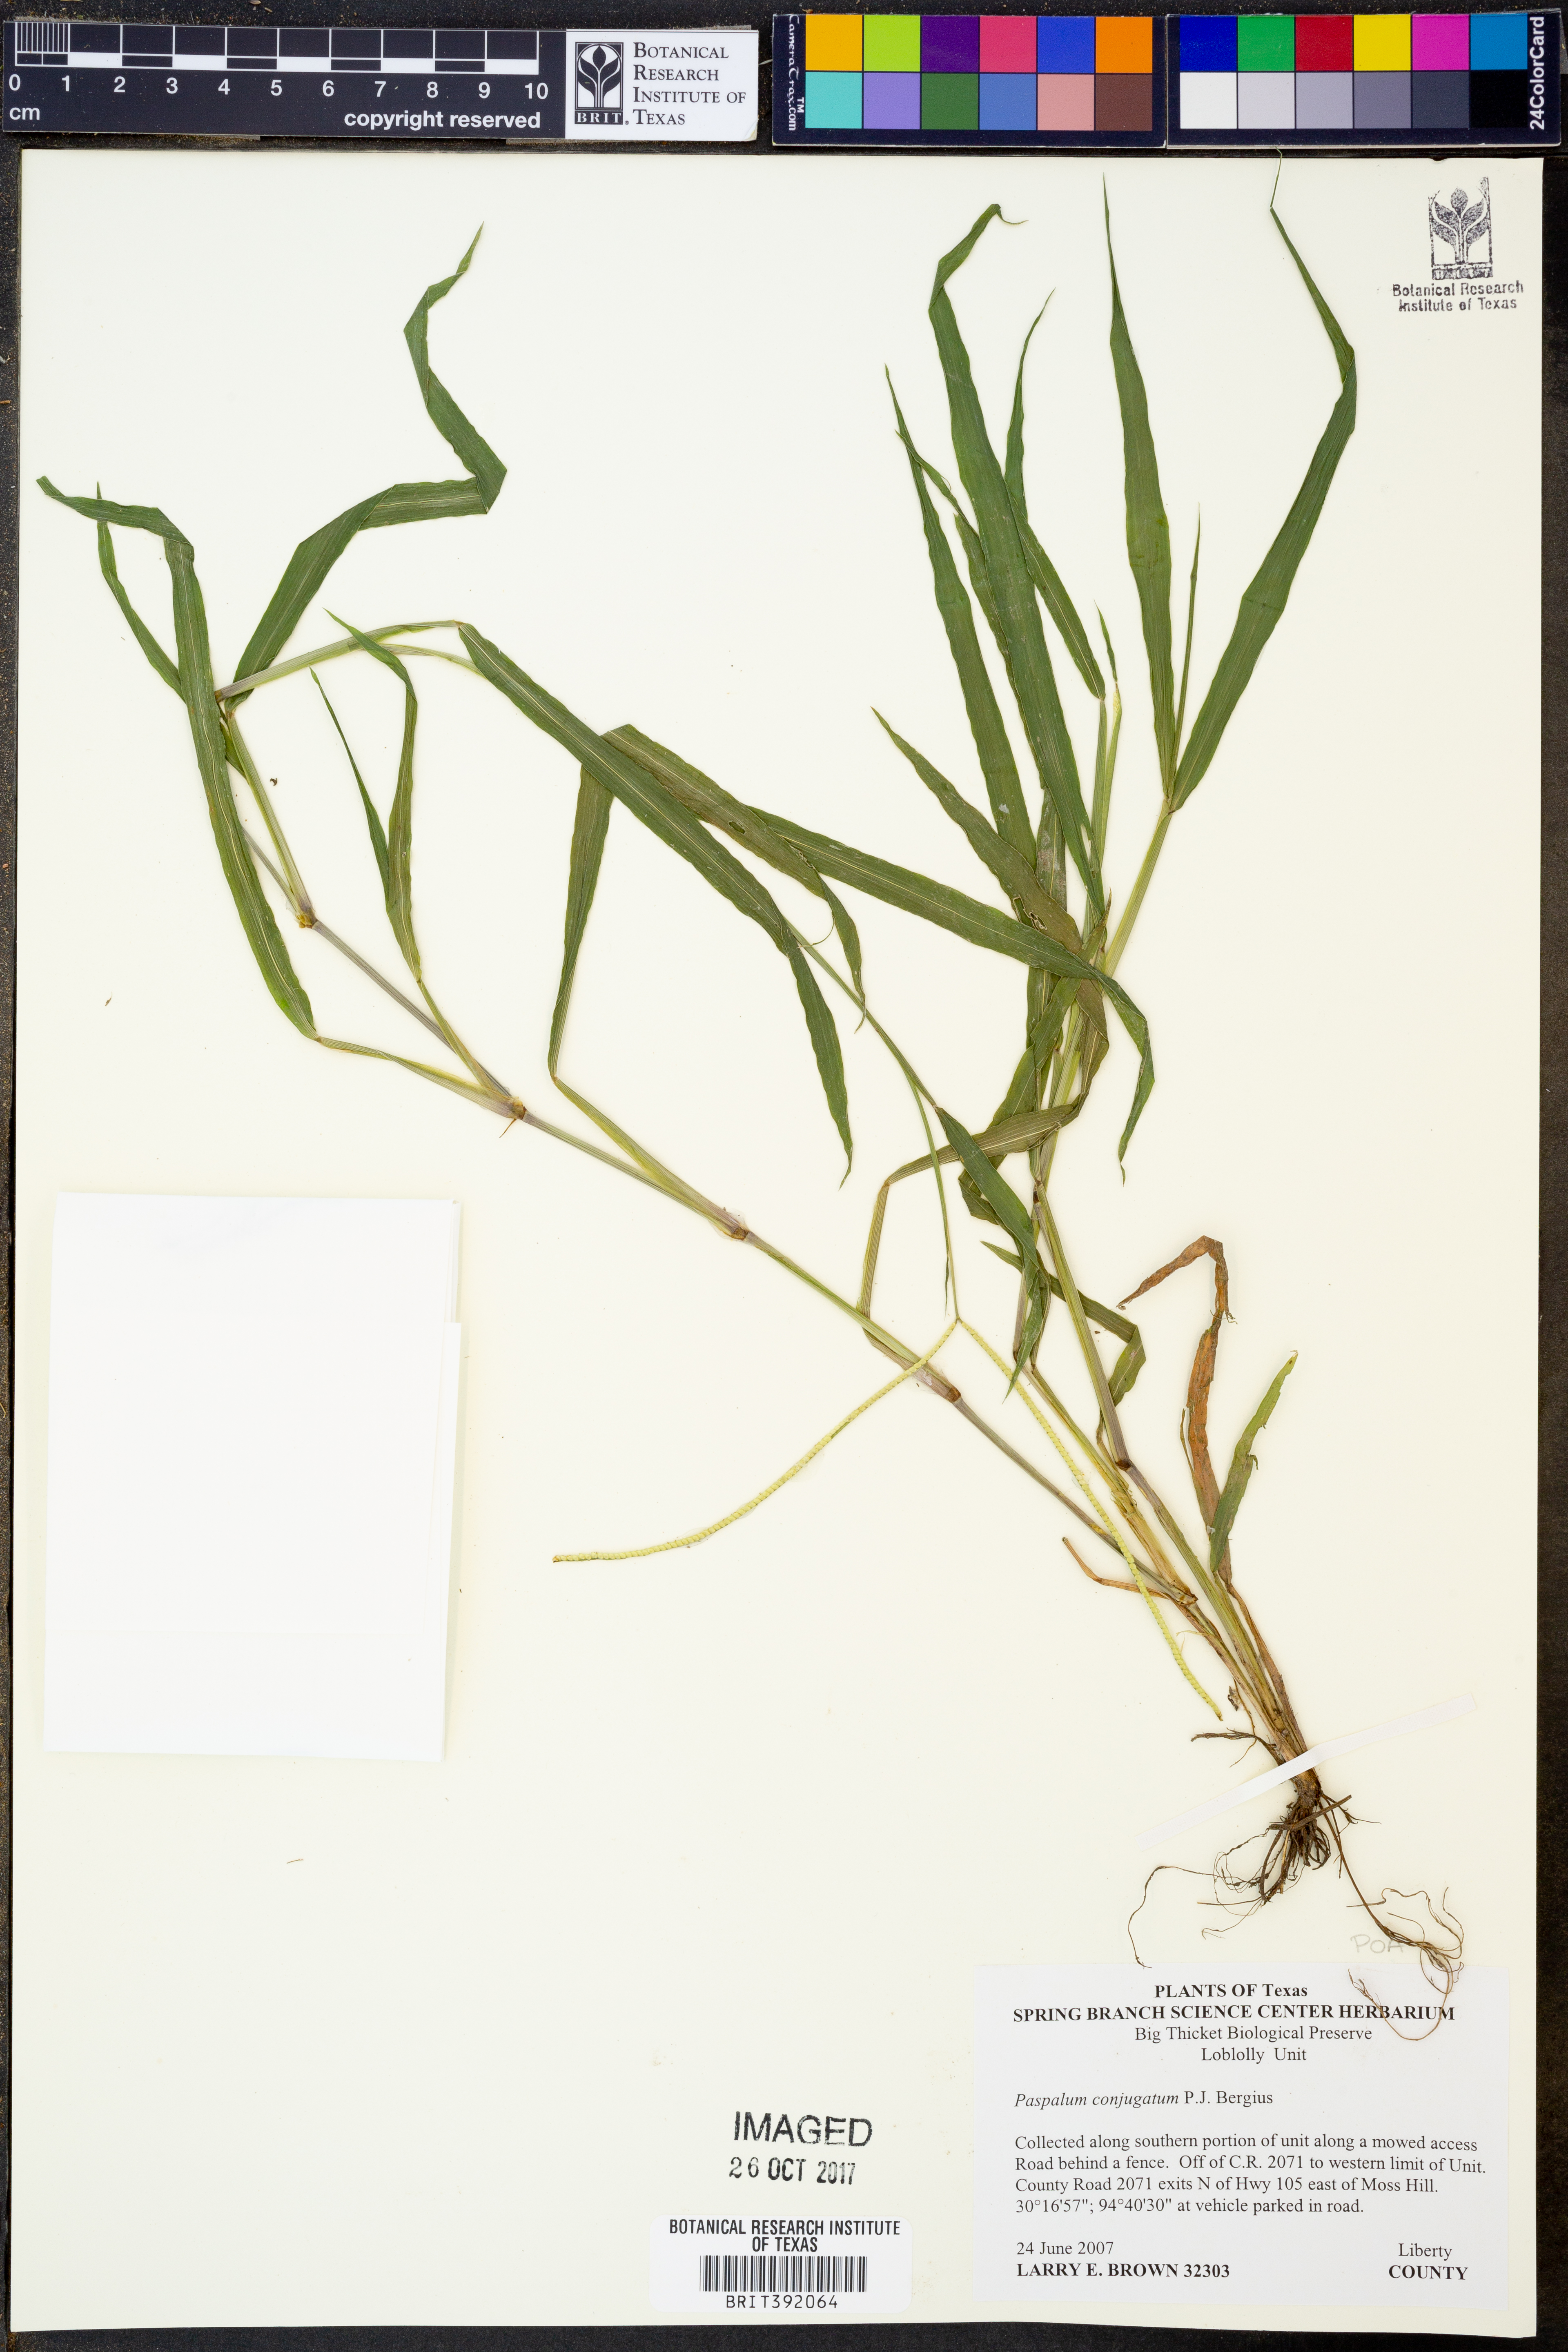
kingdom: Plantae
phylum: Tracheophyta
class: Liliopsida
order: Poales
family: Poaceae
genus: Paspalum
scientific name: Paspalum conjugatum
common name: Hilograss
